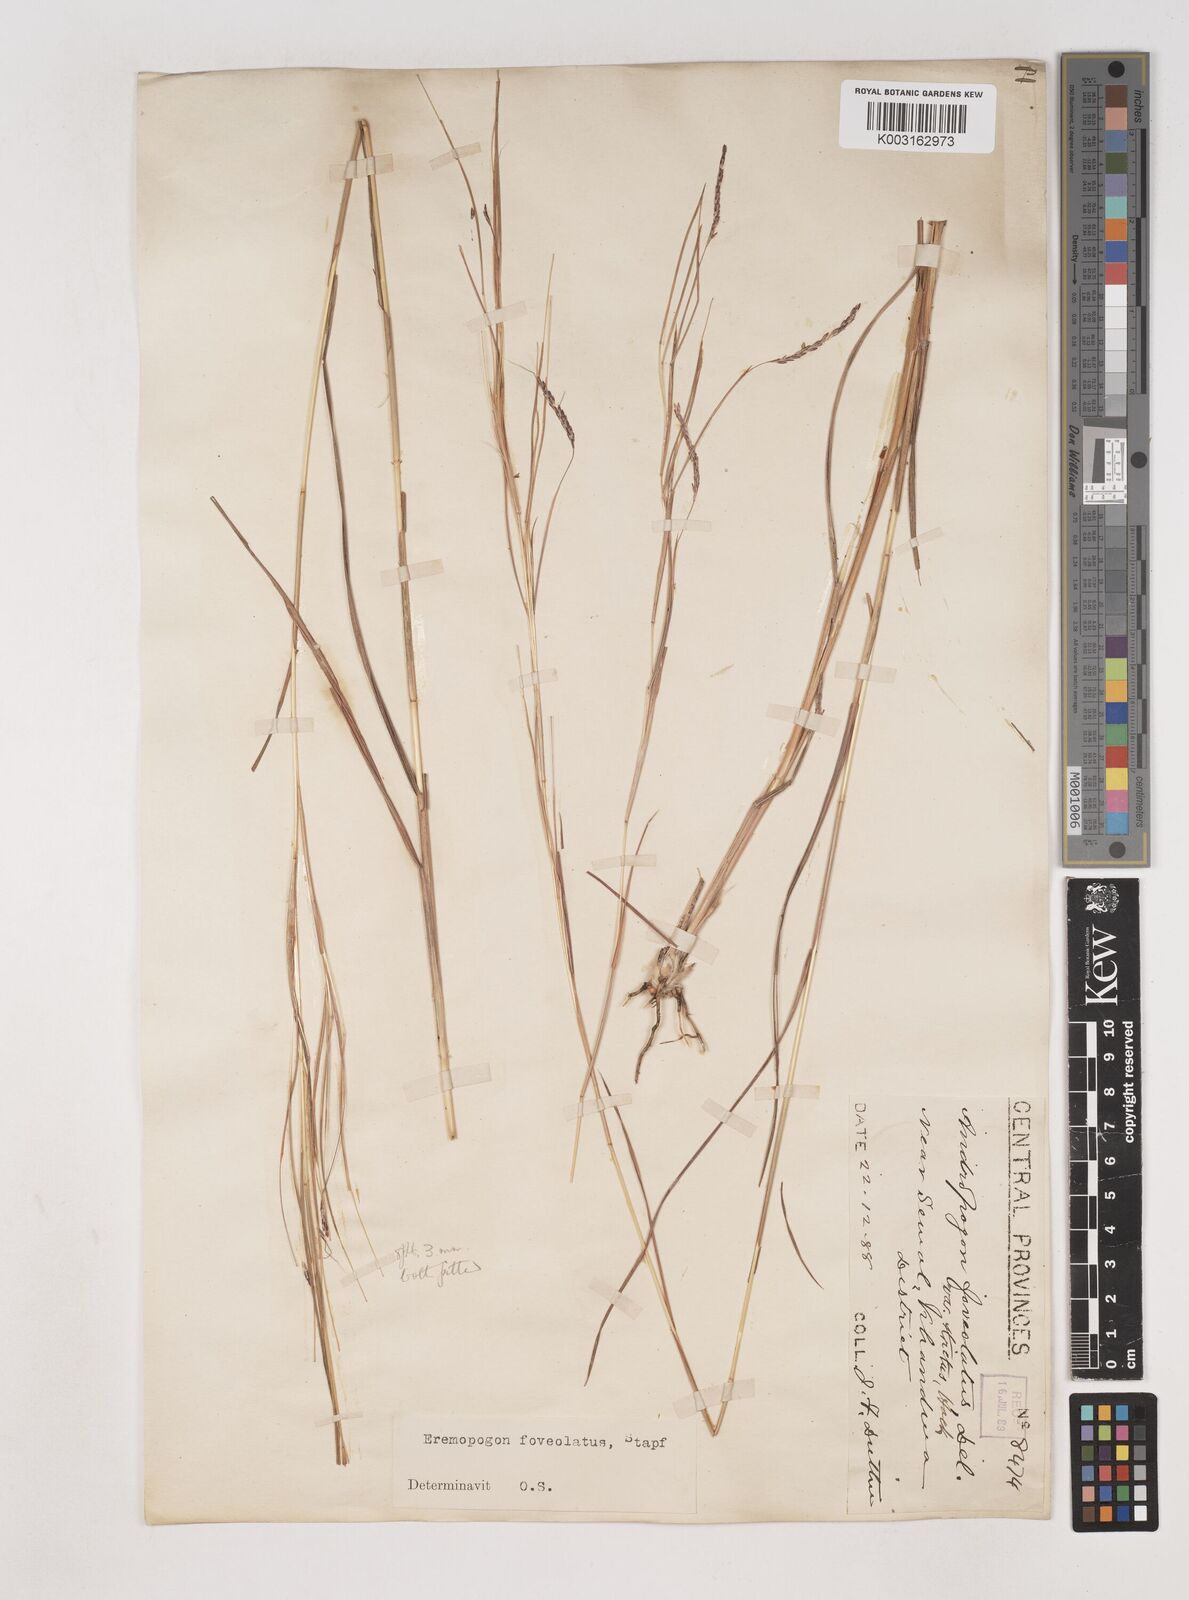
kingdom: Plantae
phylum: Tracheophyta
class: Liliopsida
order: Poales
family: Poaceae
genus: Dichanthium
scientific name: Dichanthium foveolatum
